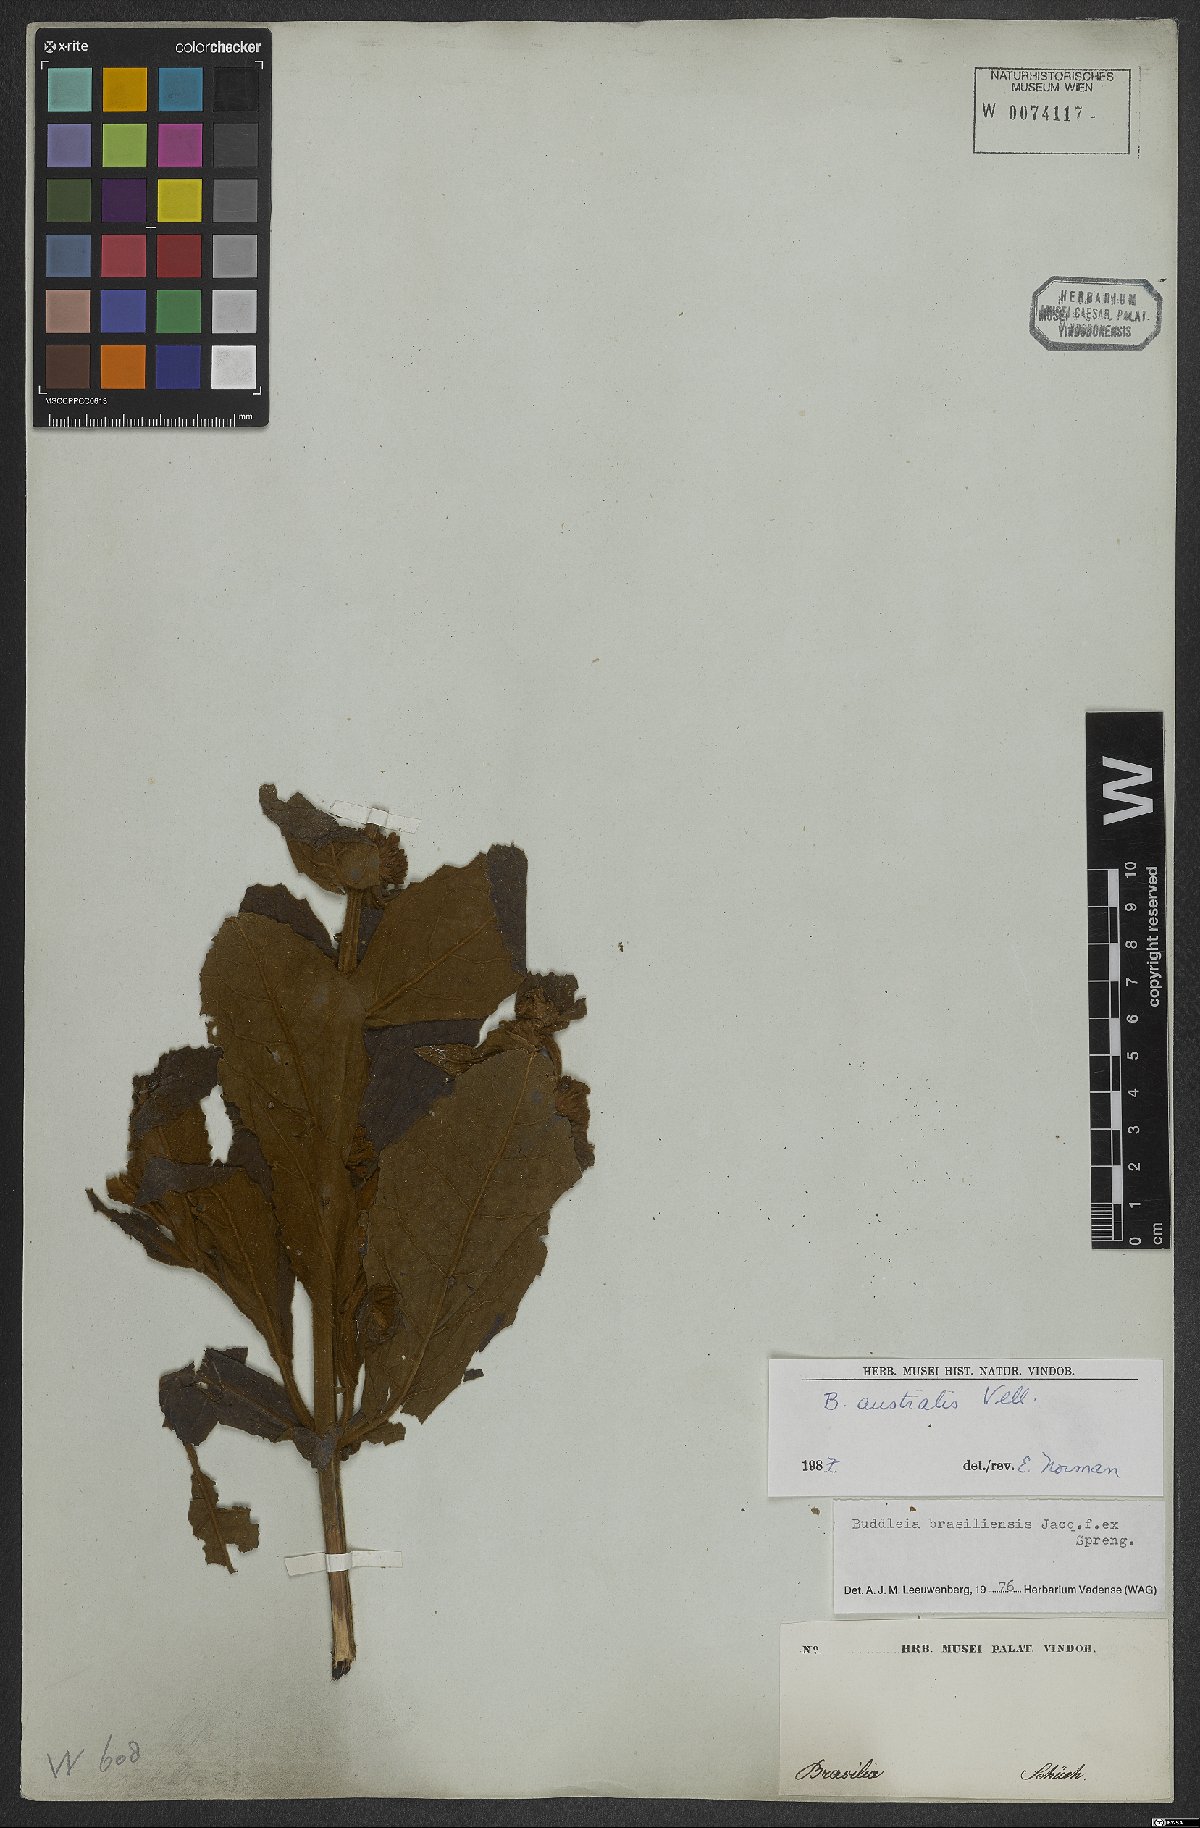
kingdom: Plantae
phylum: Tracheophyta
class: Magnoliopsida
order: Lamiales
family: Scrophulariaceae
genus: Buddleja
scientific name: Buddleja stachyoides
